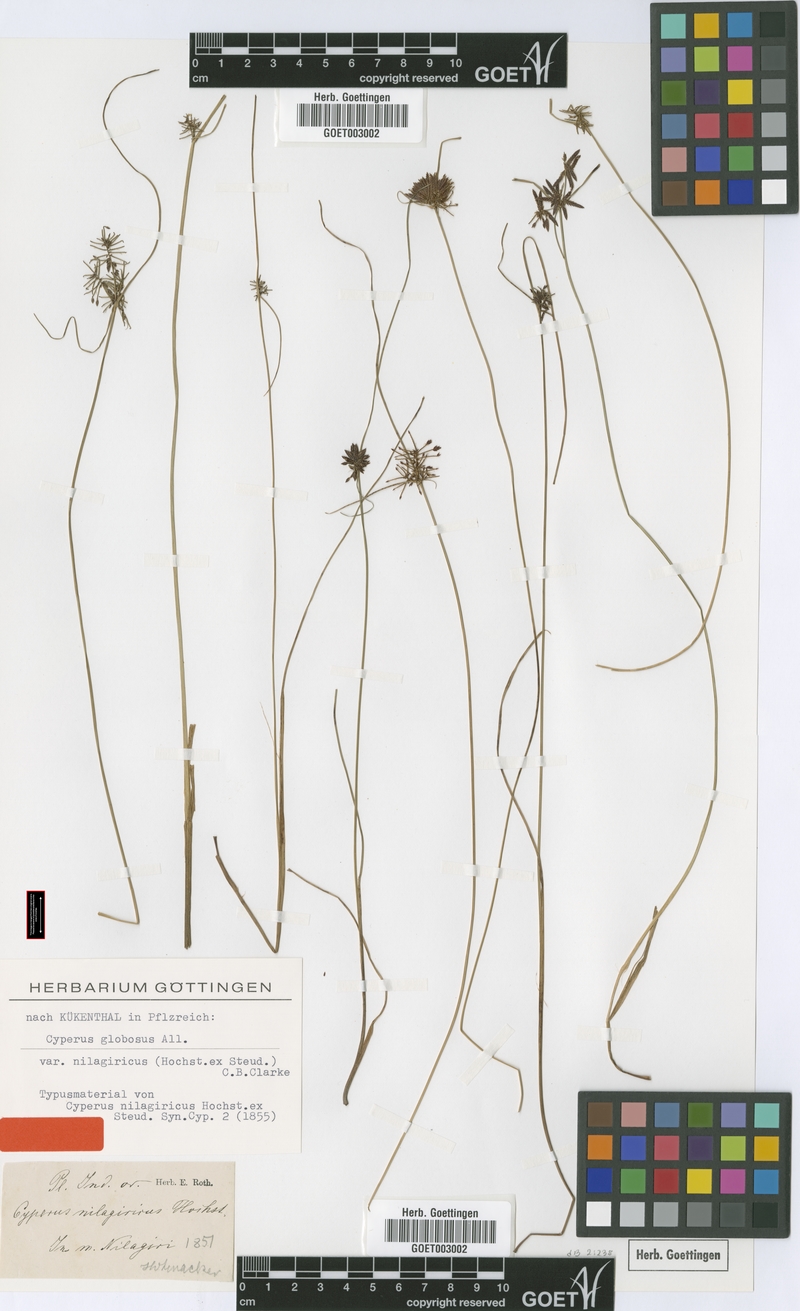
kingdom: Plantae
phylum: Tracheophyta
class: Liliopsida
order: Poales
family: Cyperaceae
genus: Cyperus
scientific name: Cyperus flavidus
